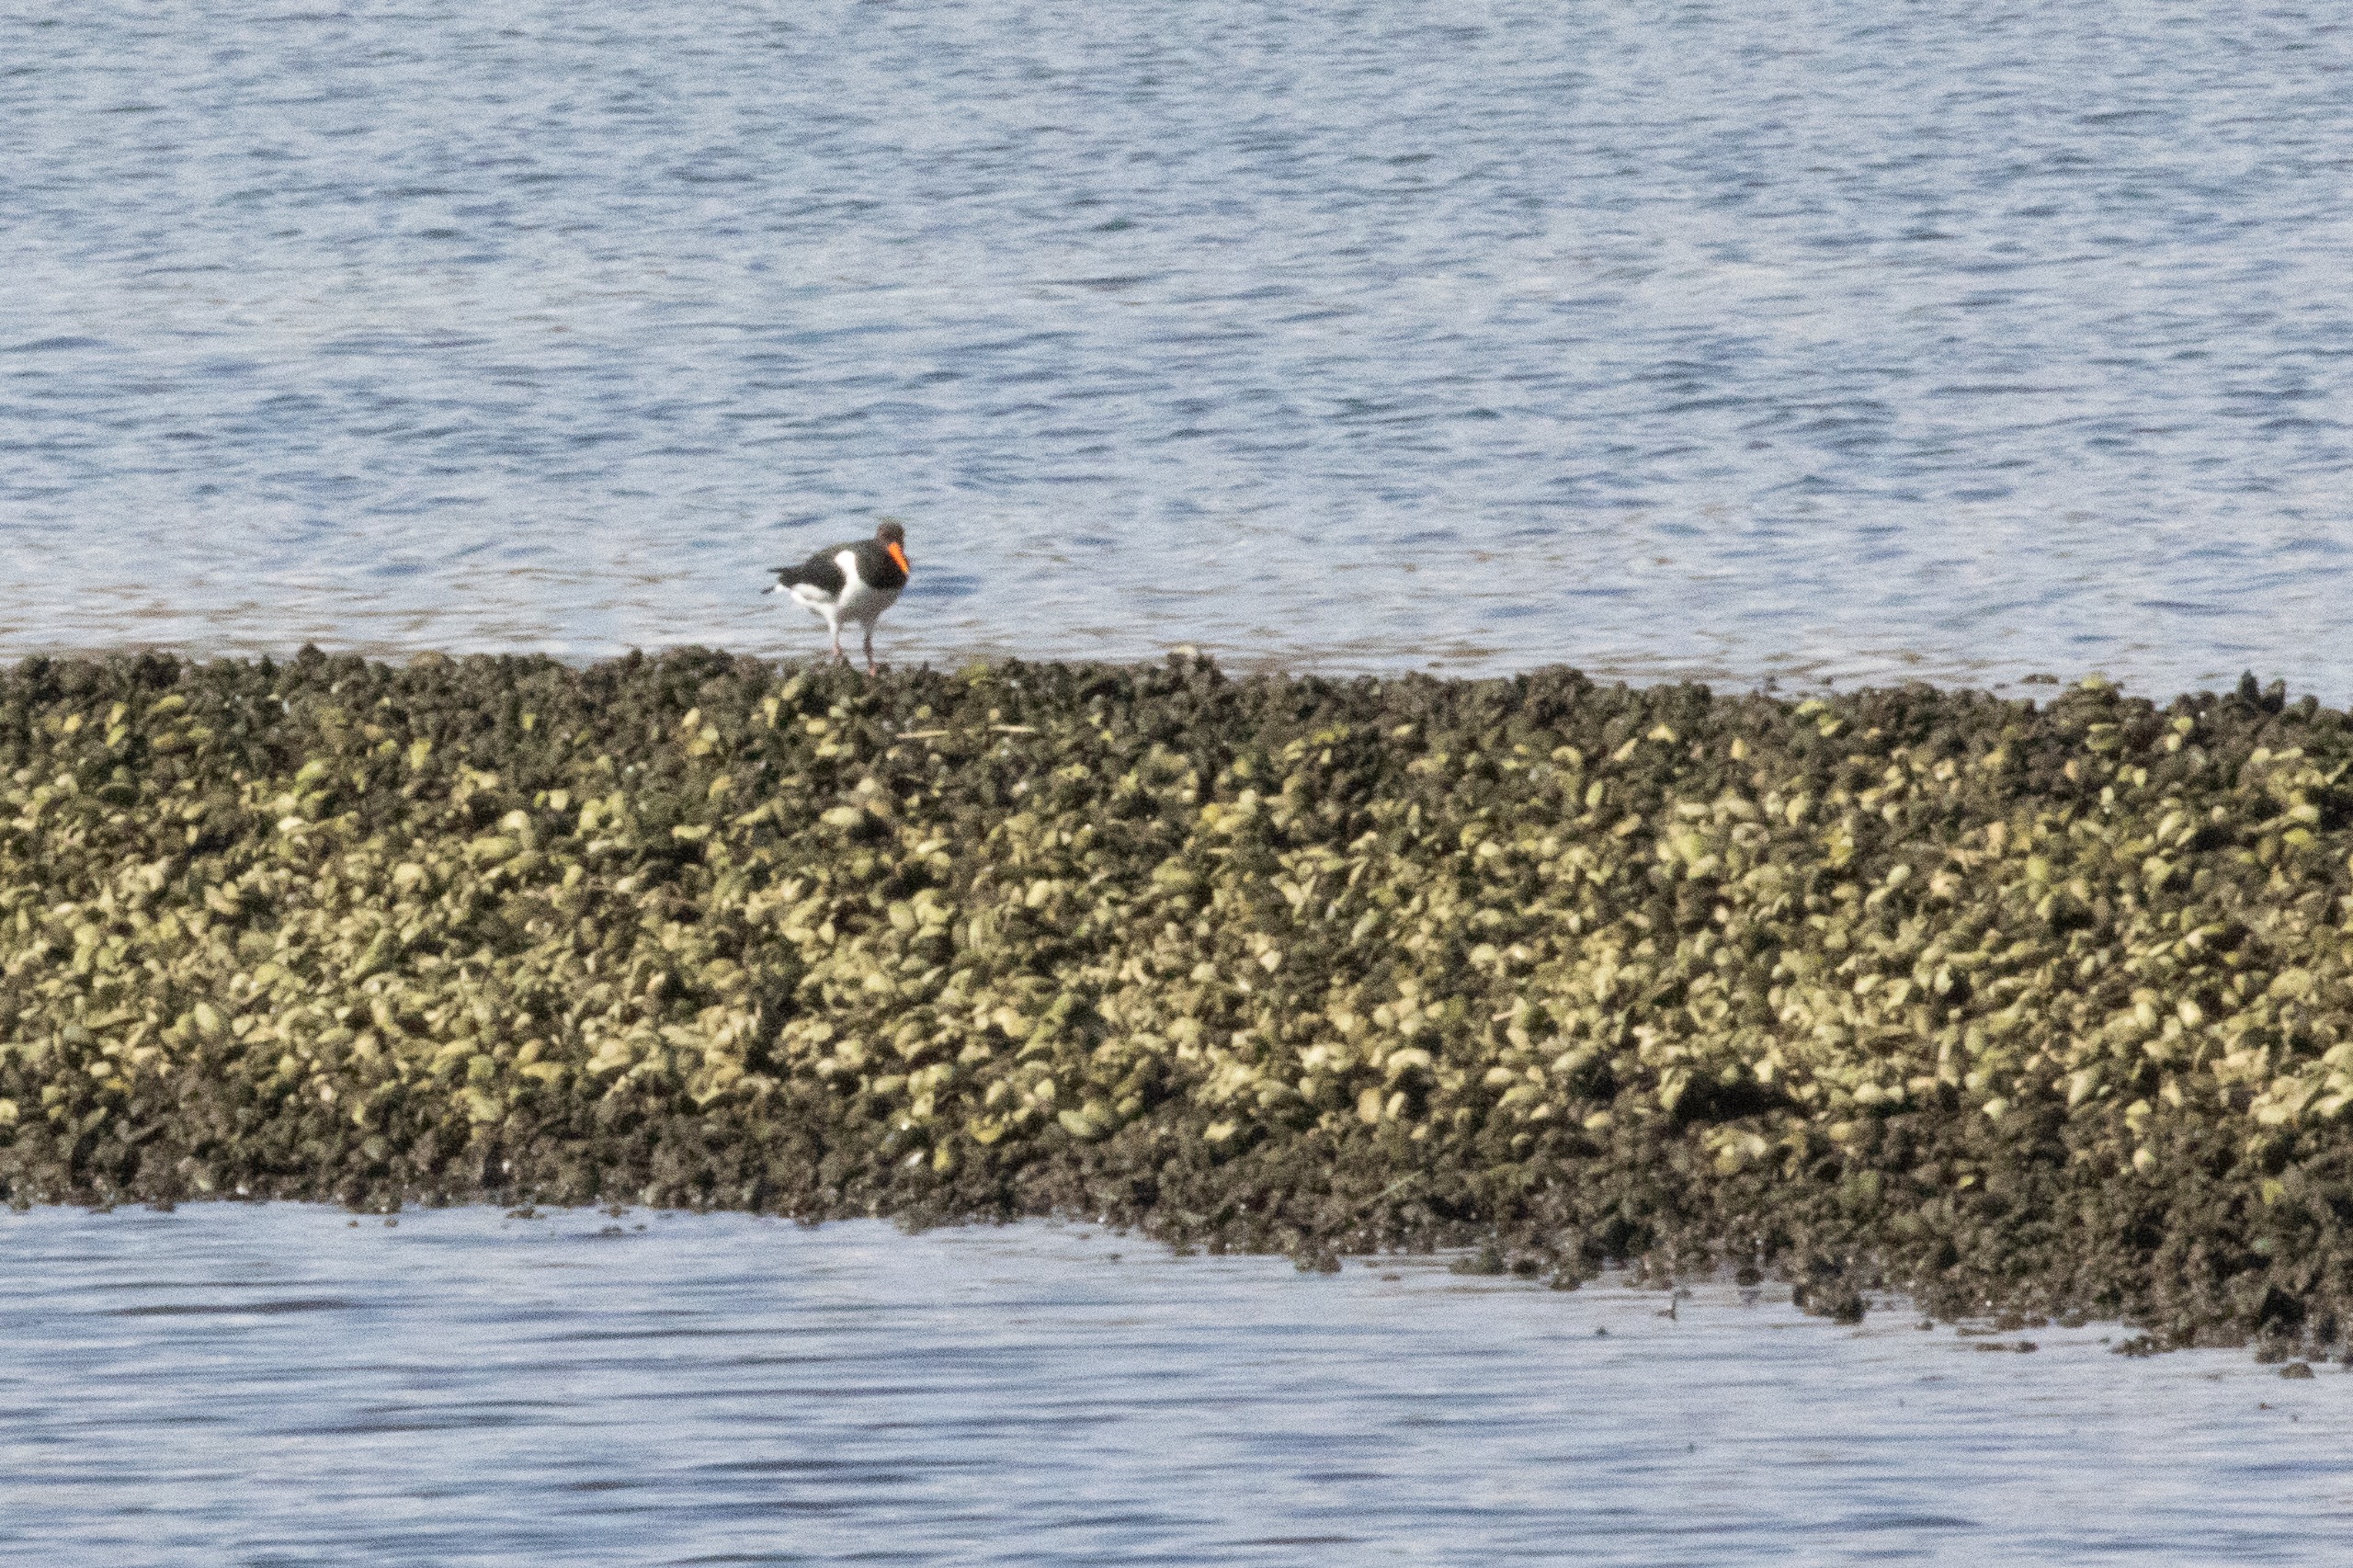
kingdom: Animalia
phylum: Chordata
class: Aves
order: Charadriiformes
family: Haematopodidae
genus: Haematopus
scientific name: Haematopus ostralegus
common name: Strandskade
